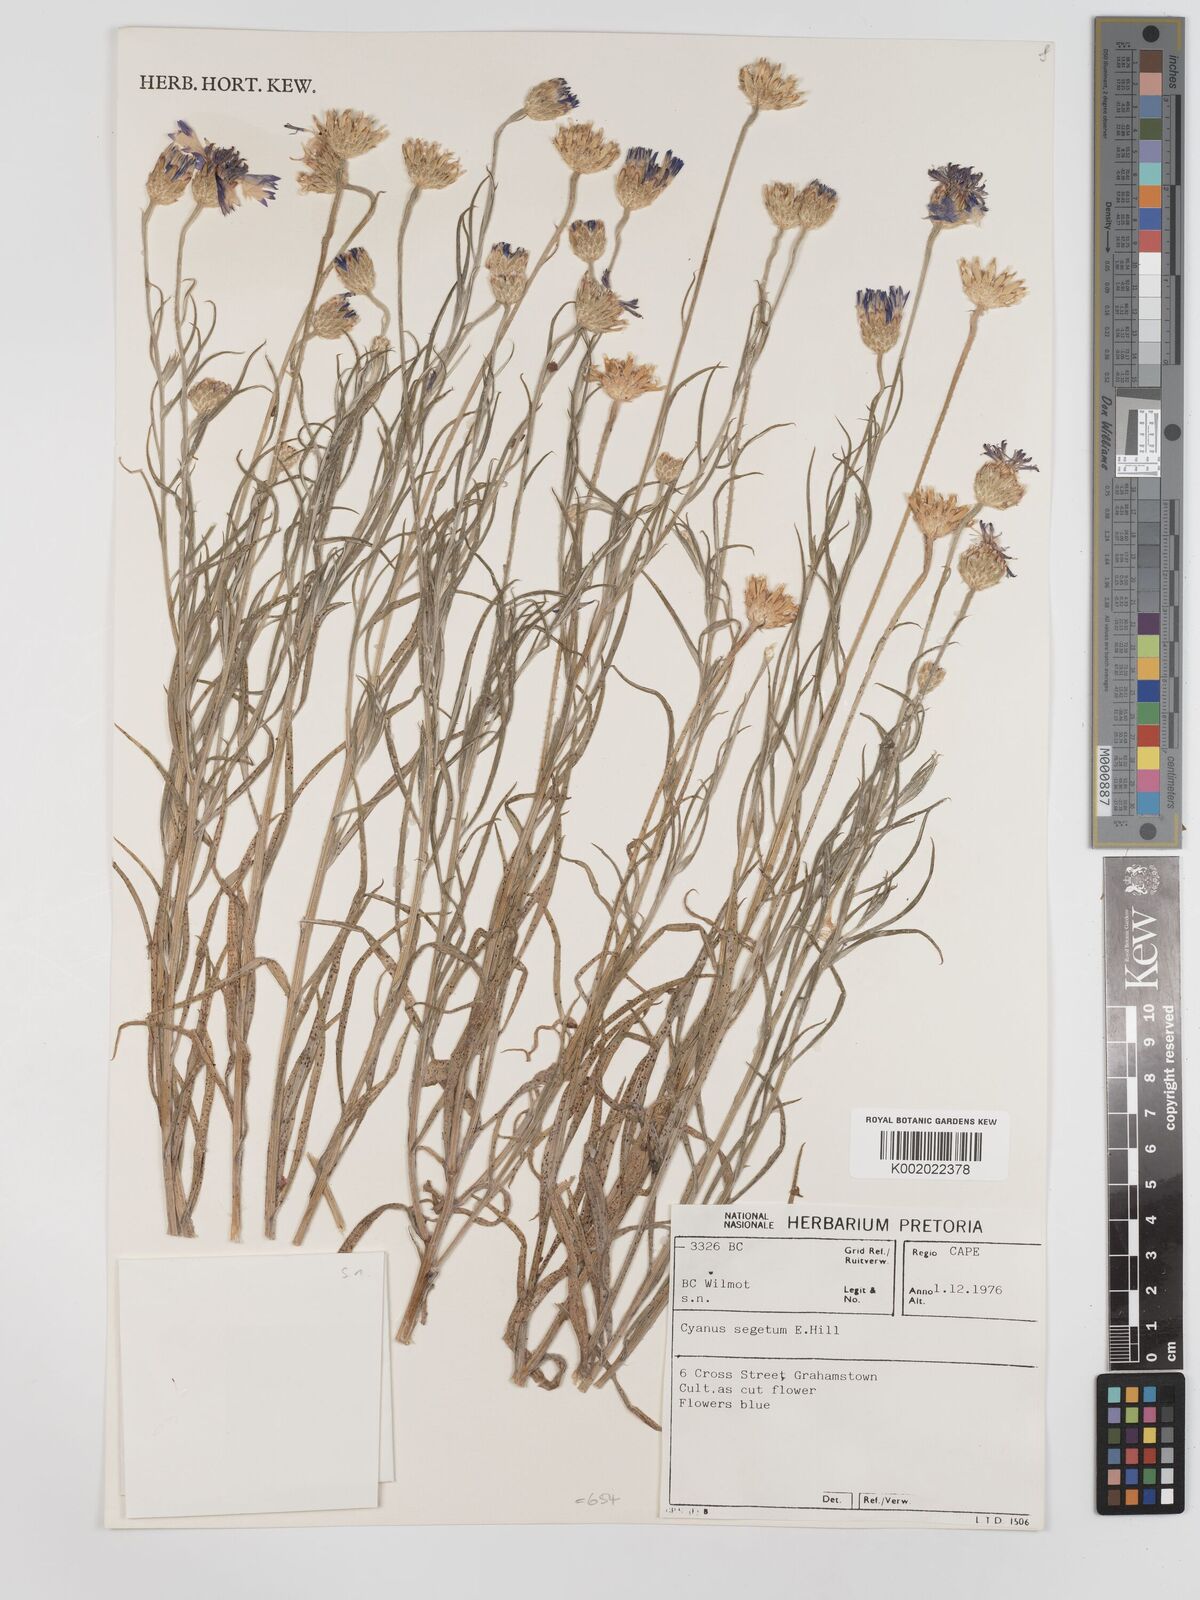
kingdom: Plantae
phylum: Tracheophyta
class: Magnoliopsida
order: Asterales
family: Asteraceae
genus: Centaurea
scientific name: Centaurea
